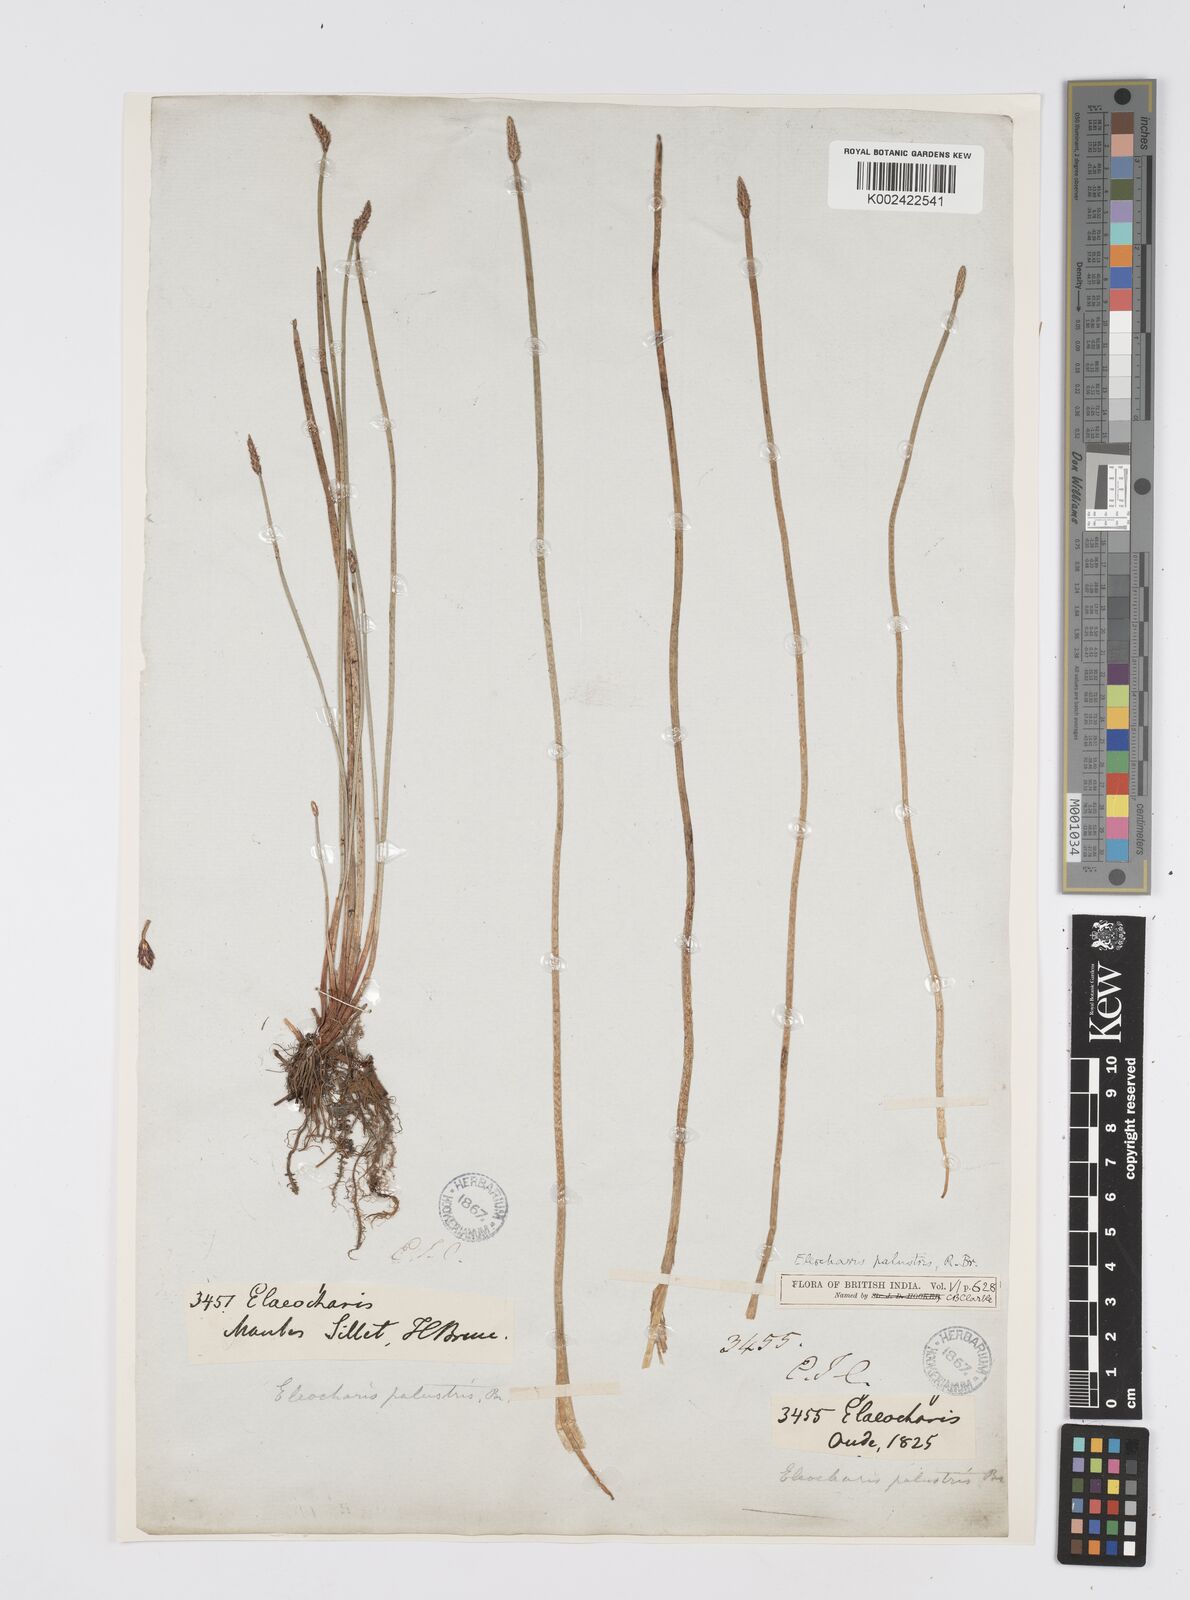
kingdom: Plantae
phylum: Tracheophyta
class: Liliopsida
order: Poales
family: Cyperaceae
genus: Eleocharis
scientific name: Eleocharis palustris
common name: Common spike-rush
